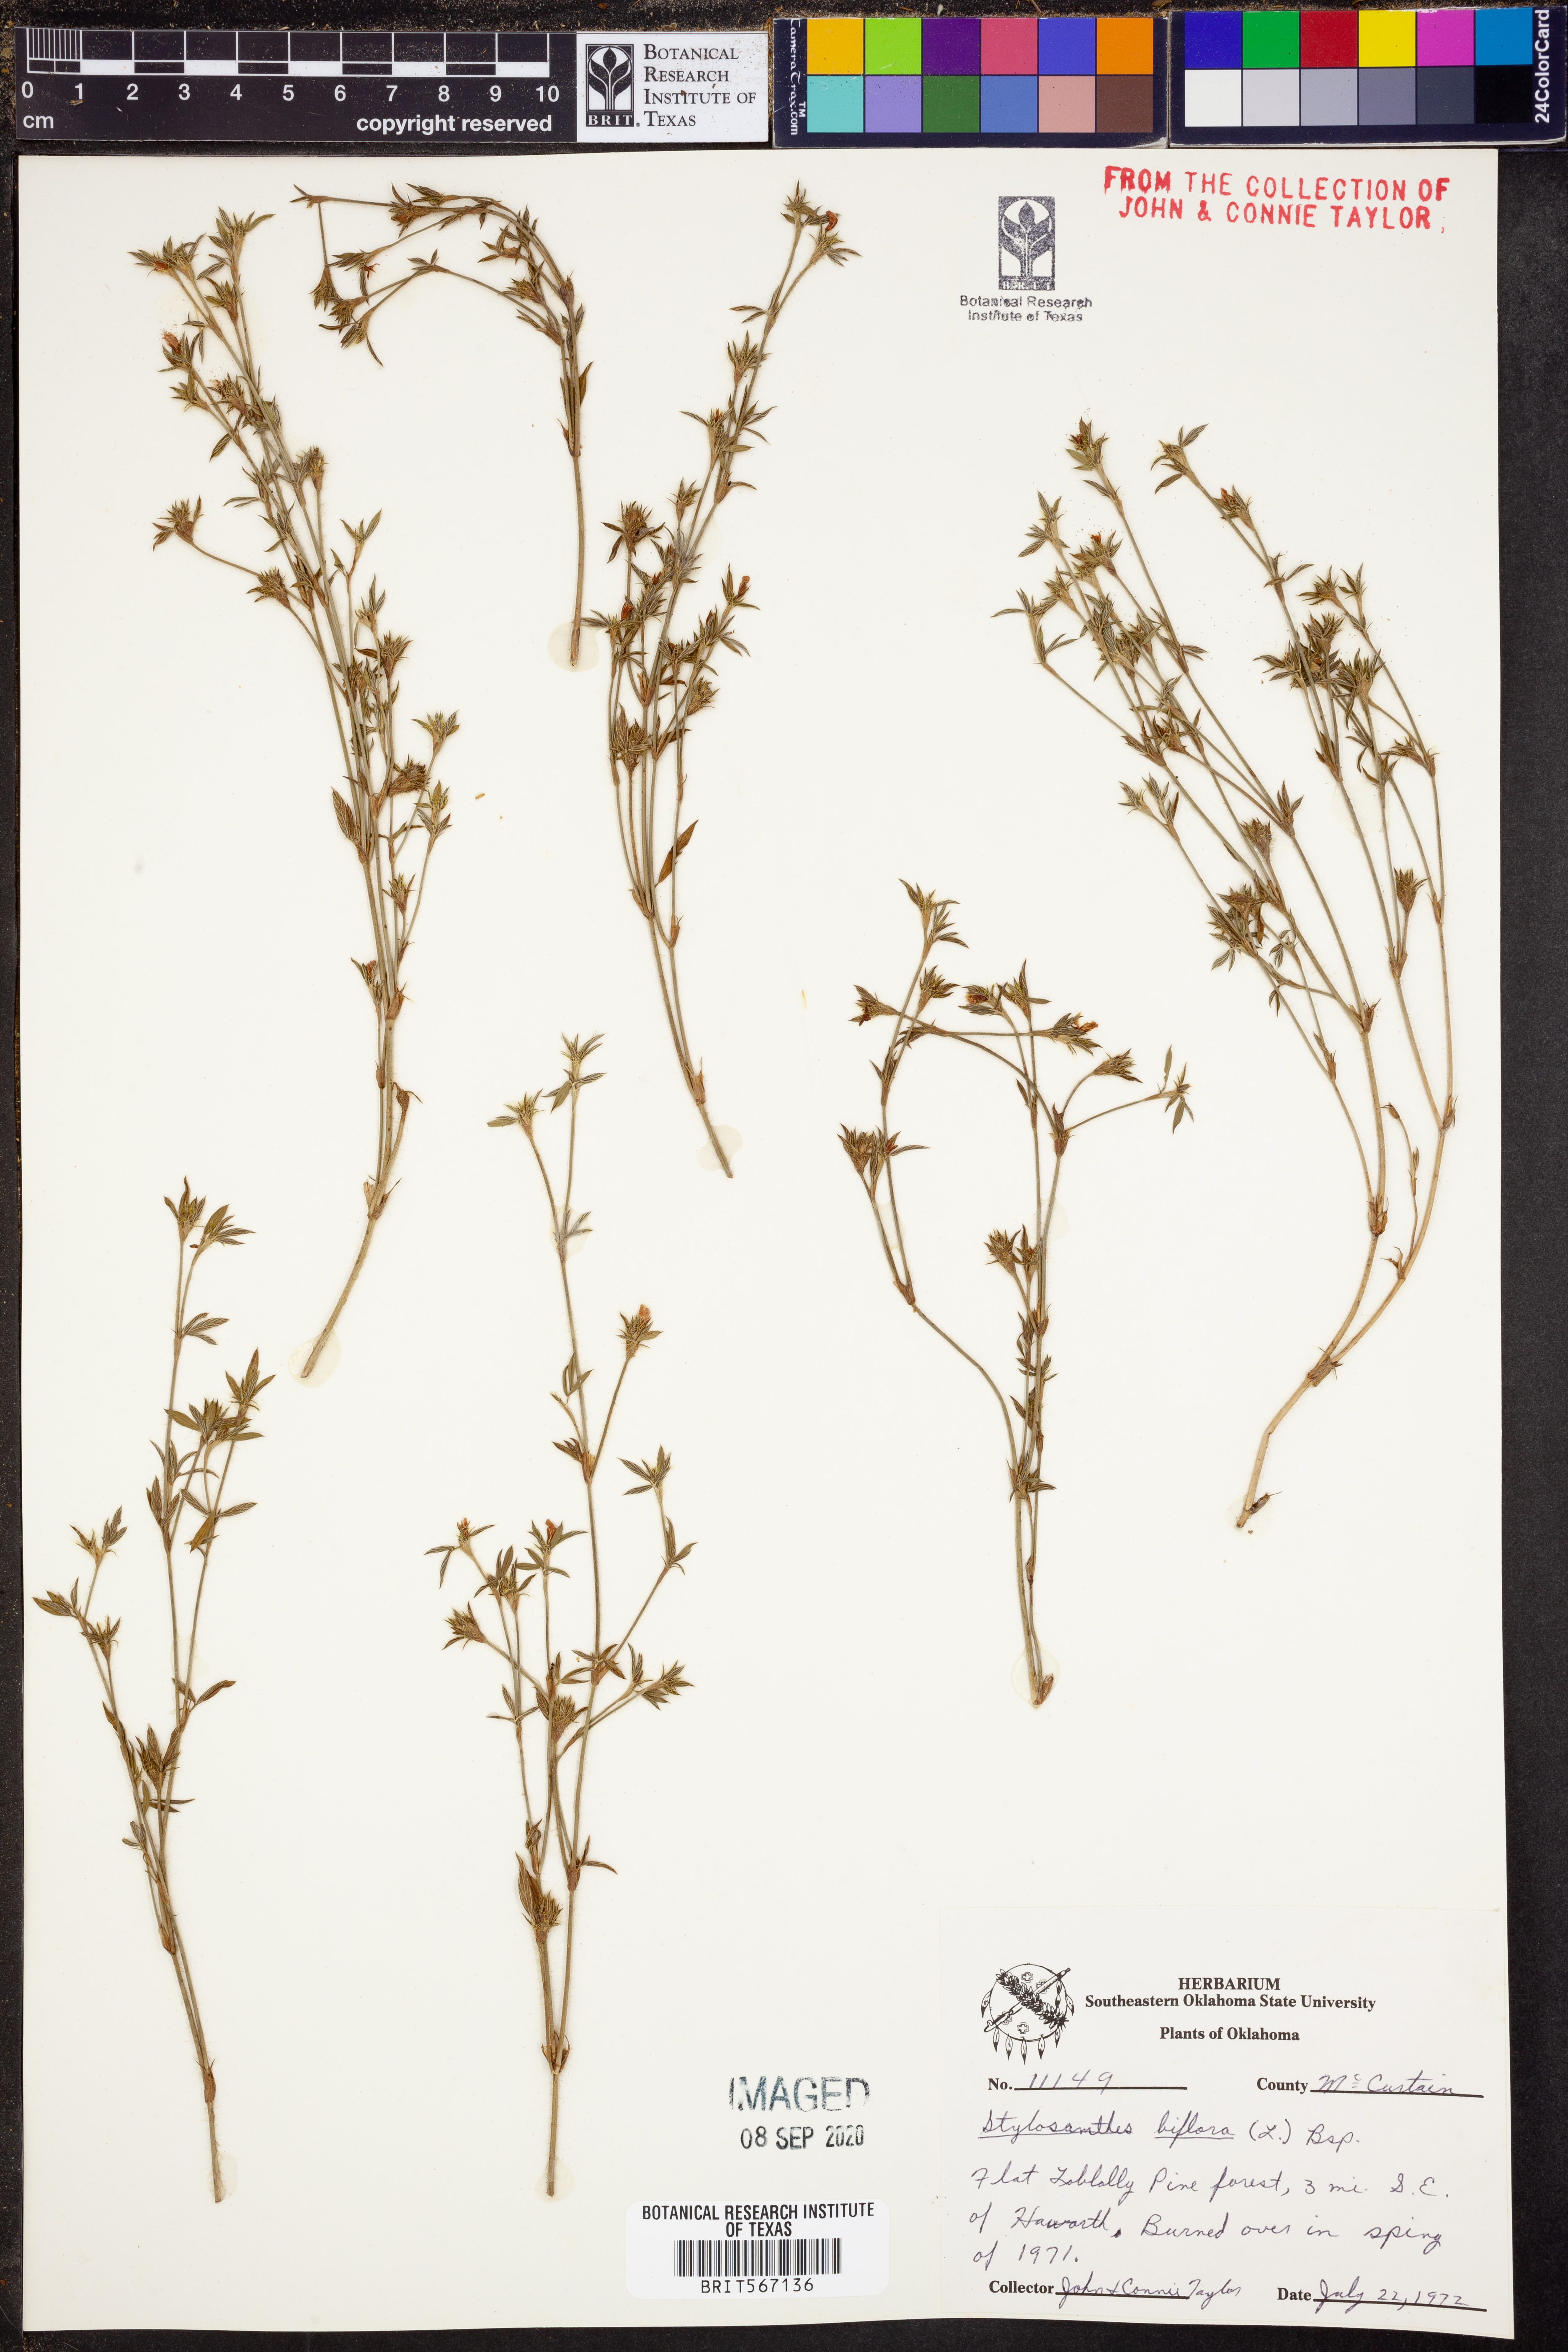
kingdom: Plantae
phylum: Tracheophyta
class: Magnoliopsida
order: Fabales
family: Fabaceae
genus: Stylosanthes
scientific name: Stylosanthes biflora
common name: Two-flower pencil-flower
